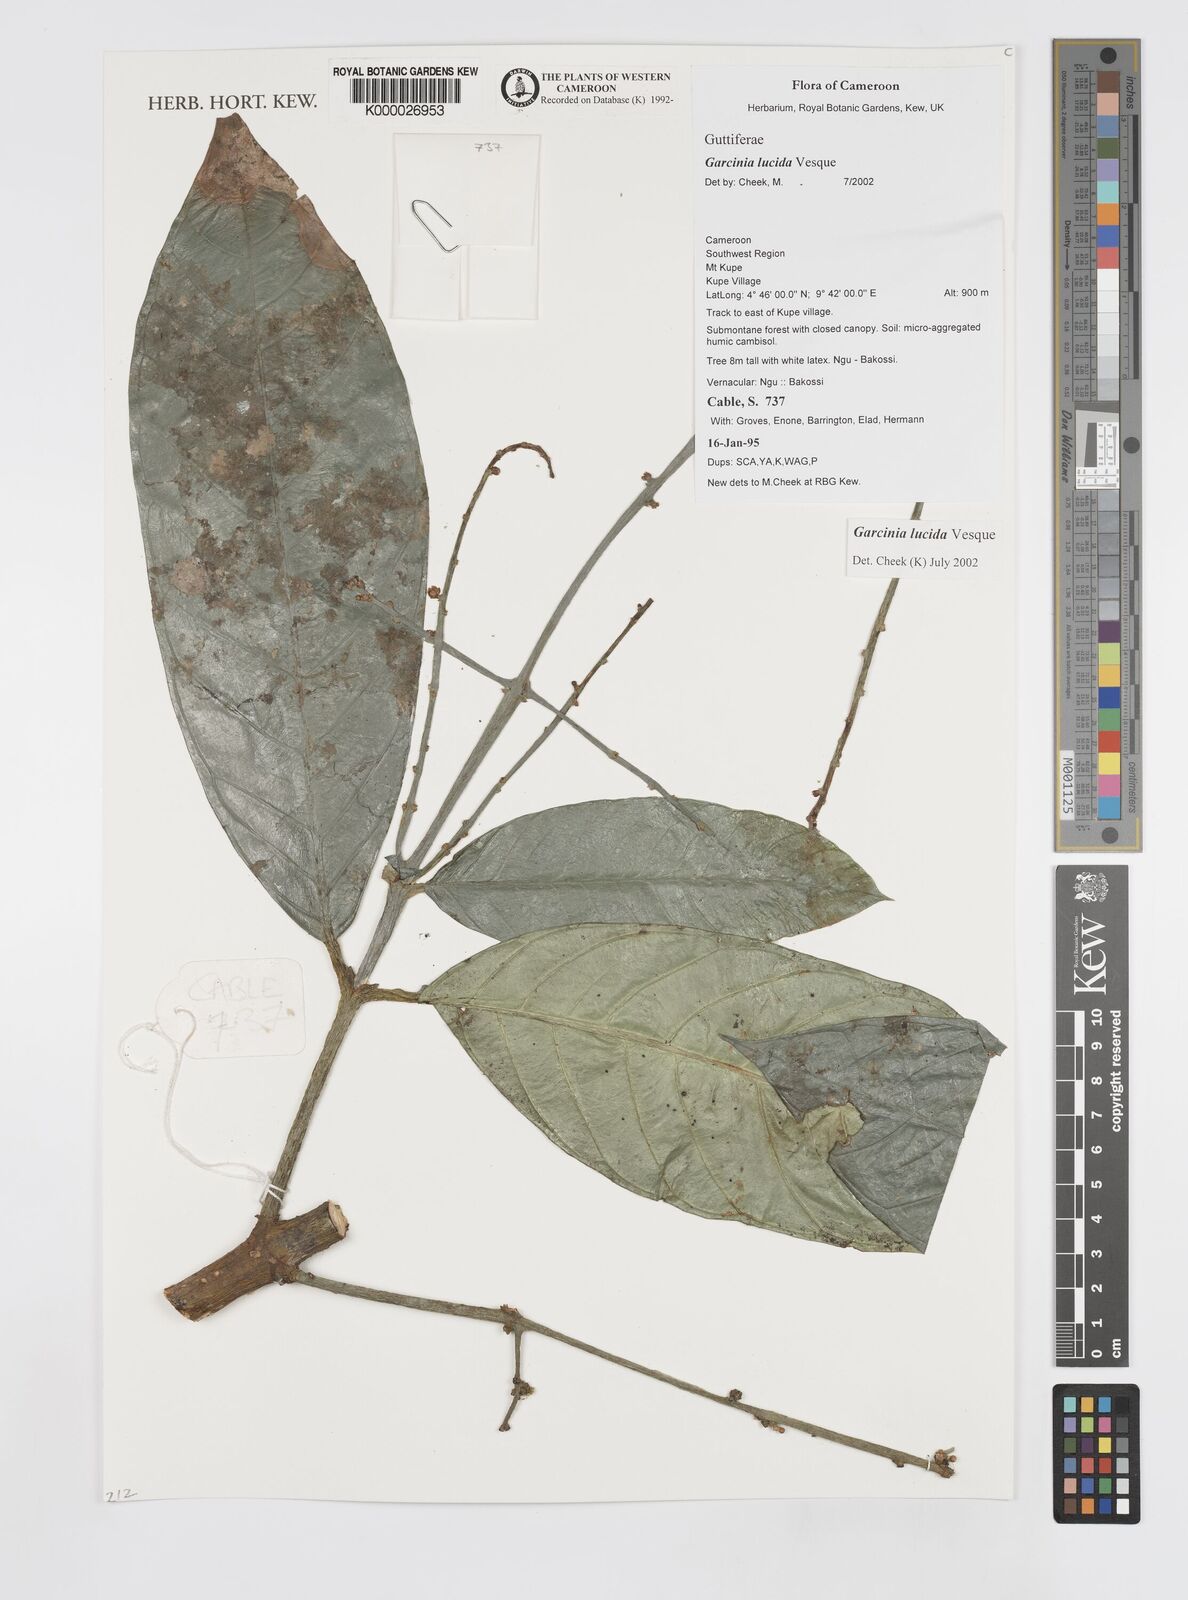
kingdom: Plantae
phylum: Tracheophyta
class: Magnoliopsida
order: Malpighiales
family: Clusiaceae
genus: Garcinia
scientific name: Garcinia lucida
